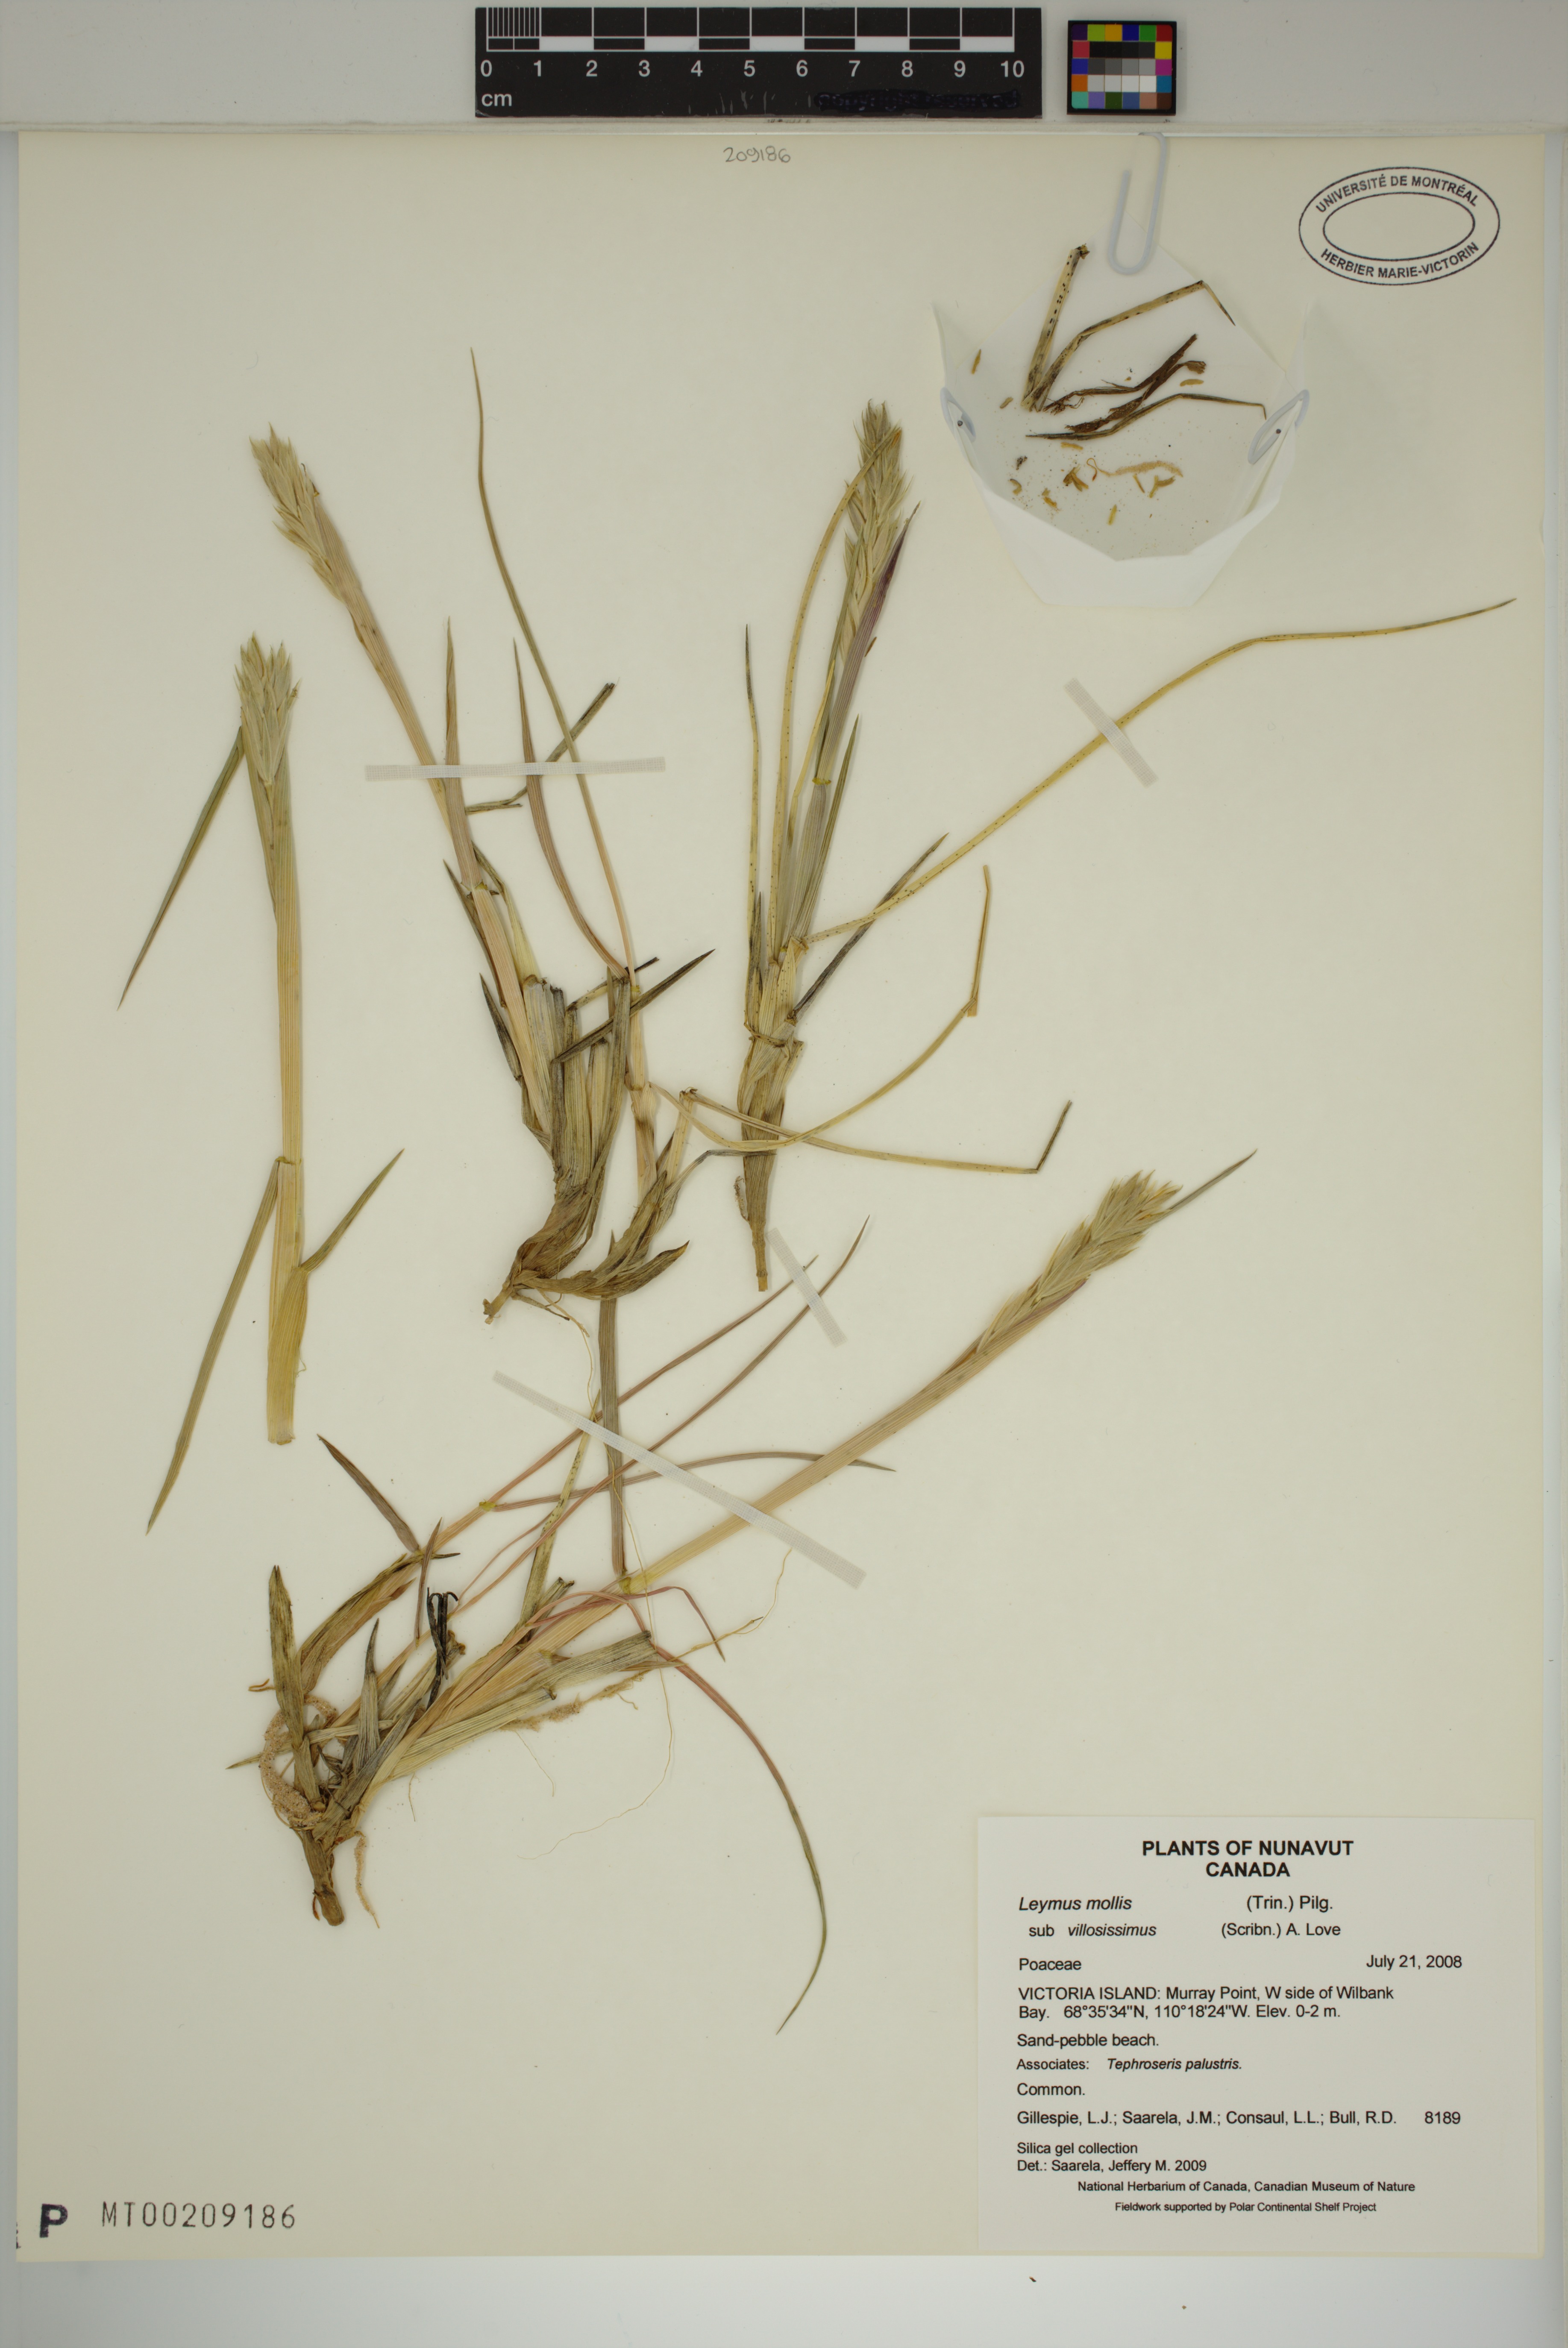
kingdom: Plantae
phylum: Tracheophyta
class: Liliopsida
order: Poales
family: Poaceae
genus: Leymus
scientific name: Leymus villosissimus
